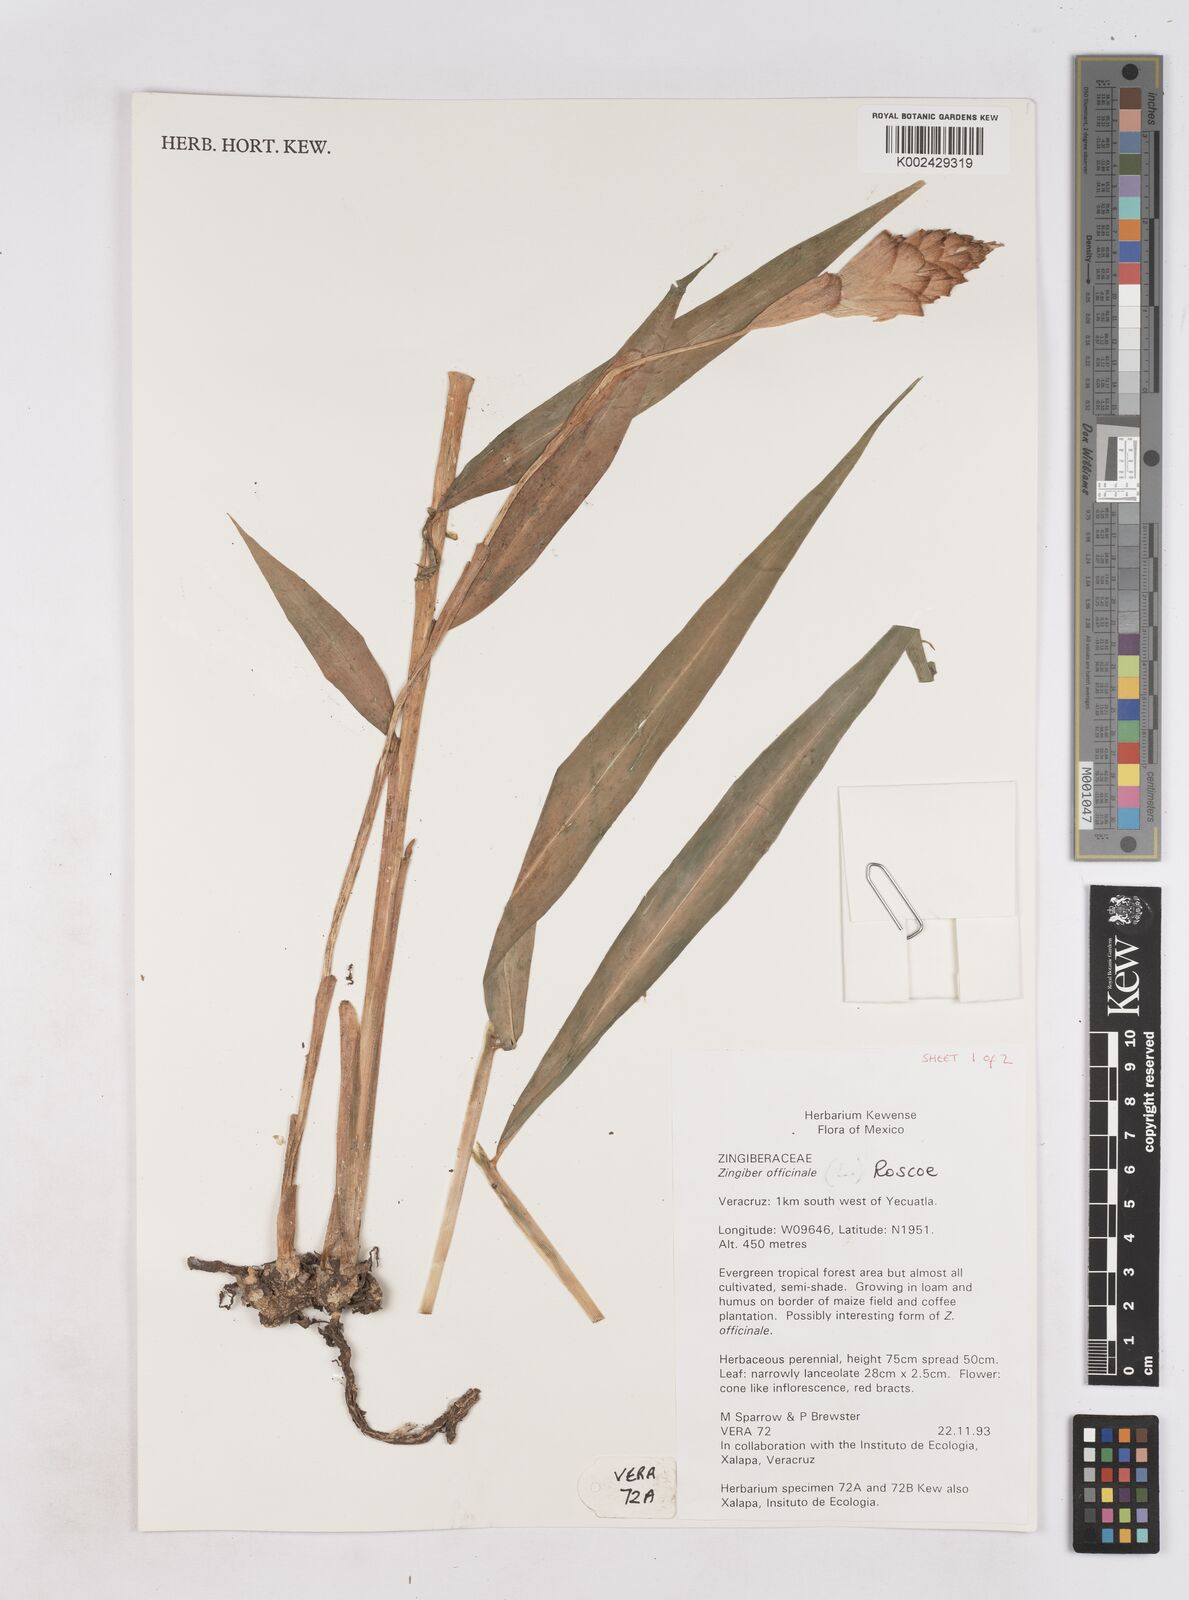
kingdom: Plantae
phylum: Tracheophyta
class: Liliopsida
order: Zingiberales
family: Zingiberaceae
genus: Zingiber
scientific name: Zingiber officinale
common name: Ginger
